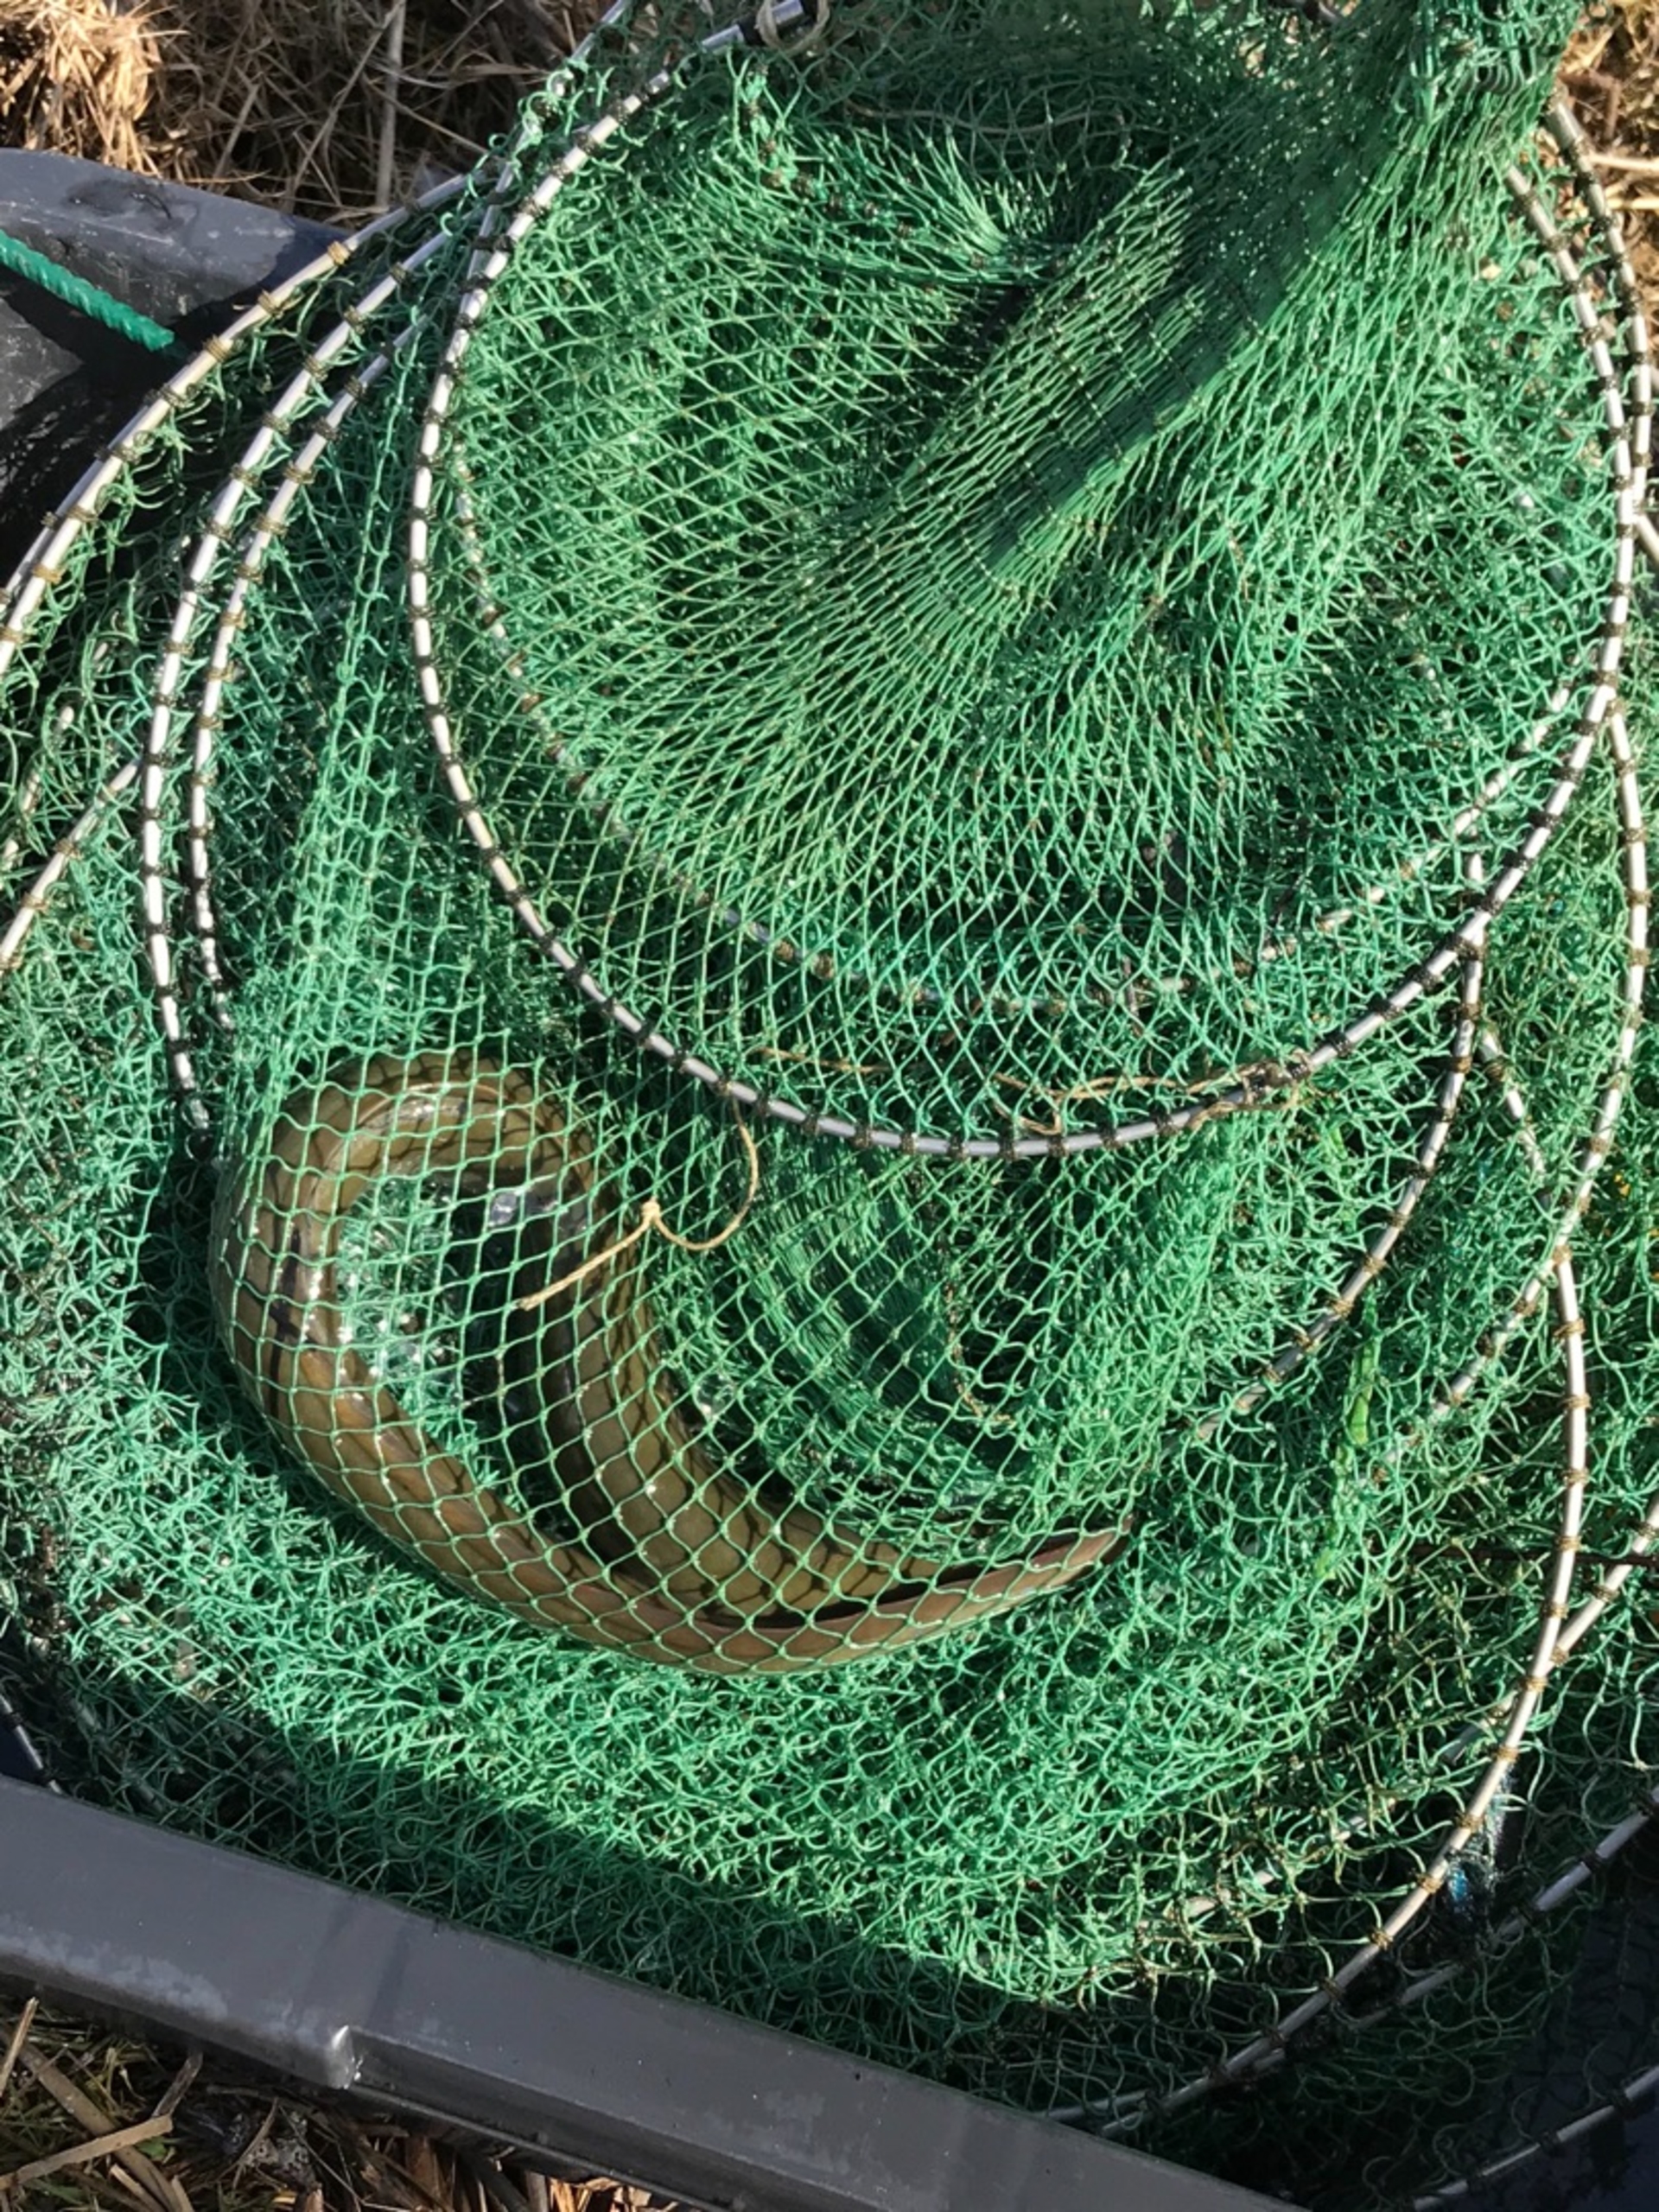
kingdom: Animalia
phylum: Chordata
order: Anguilliformes
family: Anguillidae
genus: Anguilla
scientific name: Anguilla anguilla
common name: Europæisk ål
